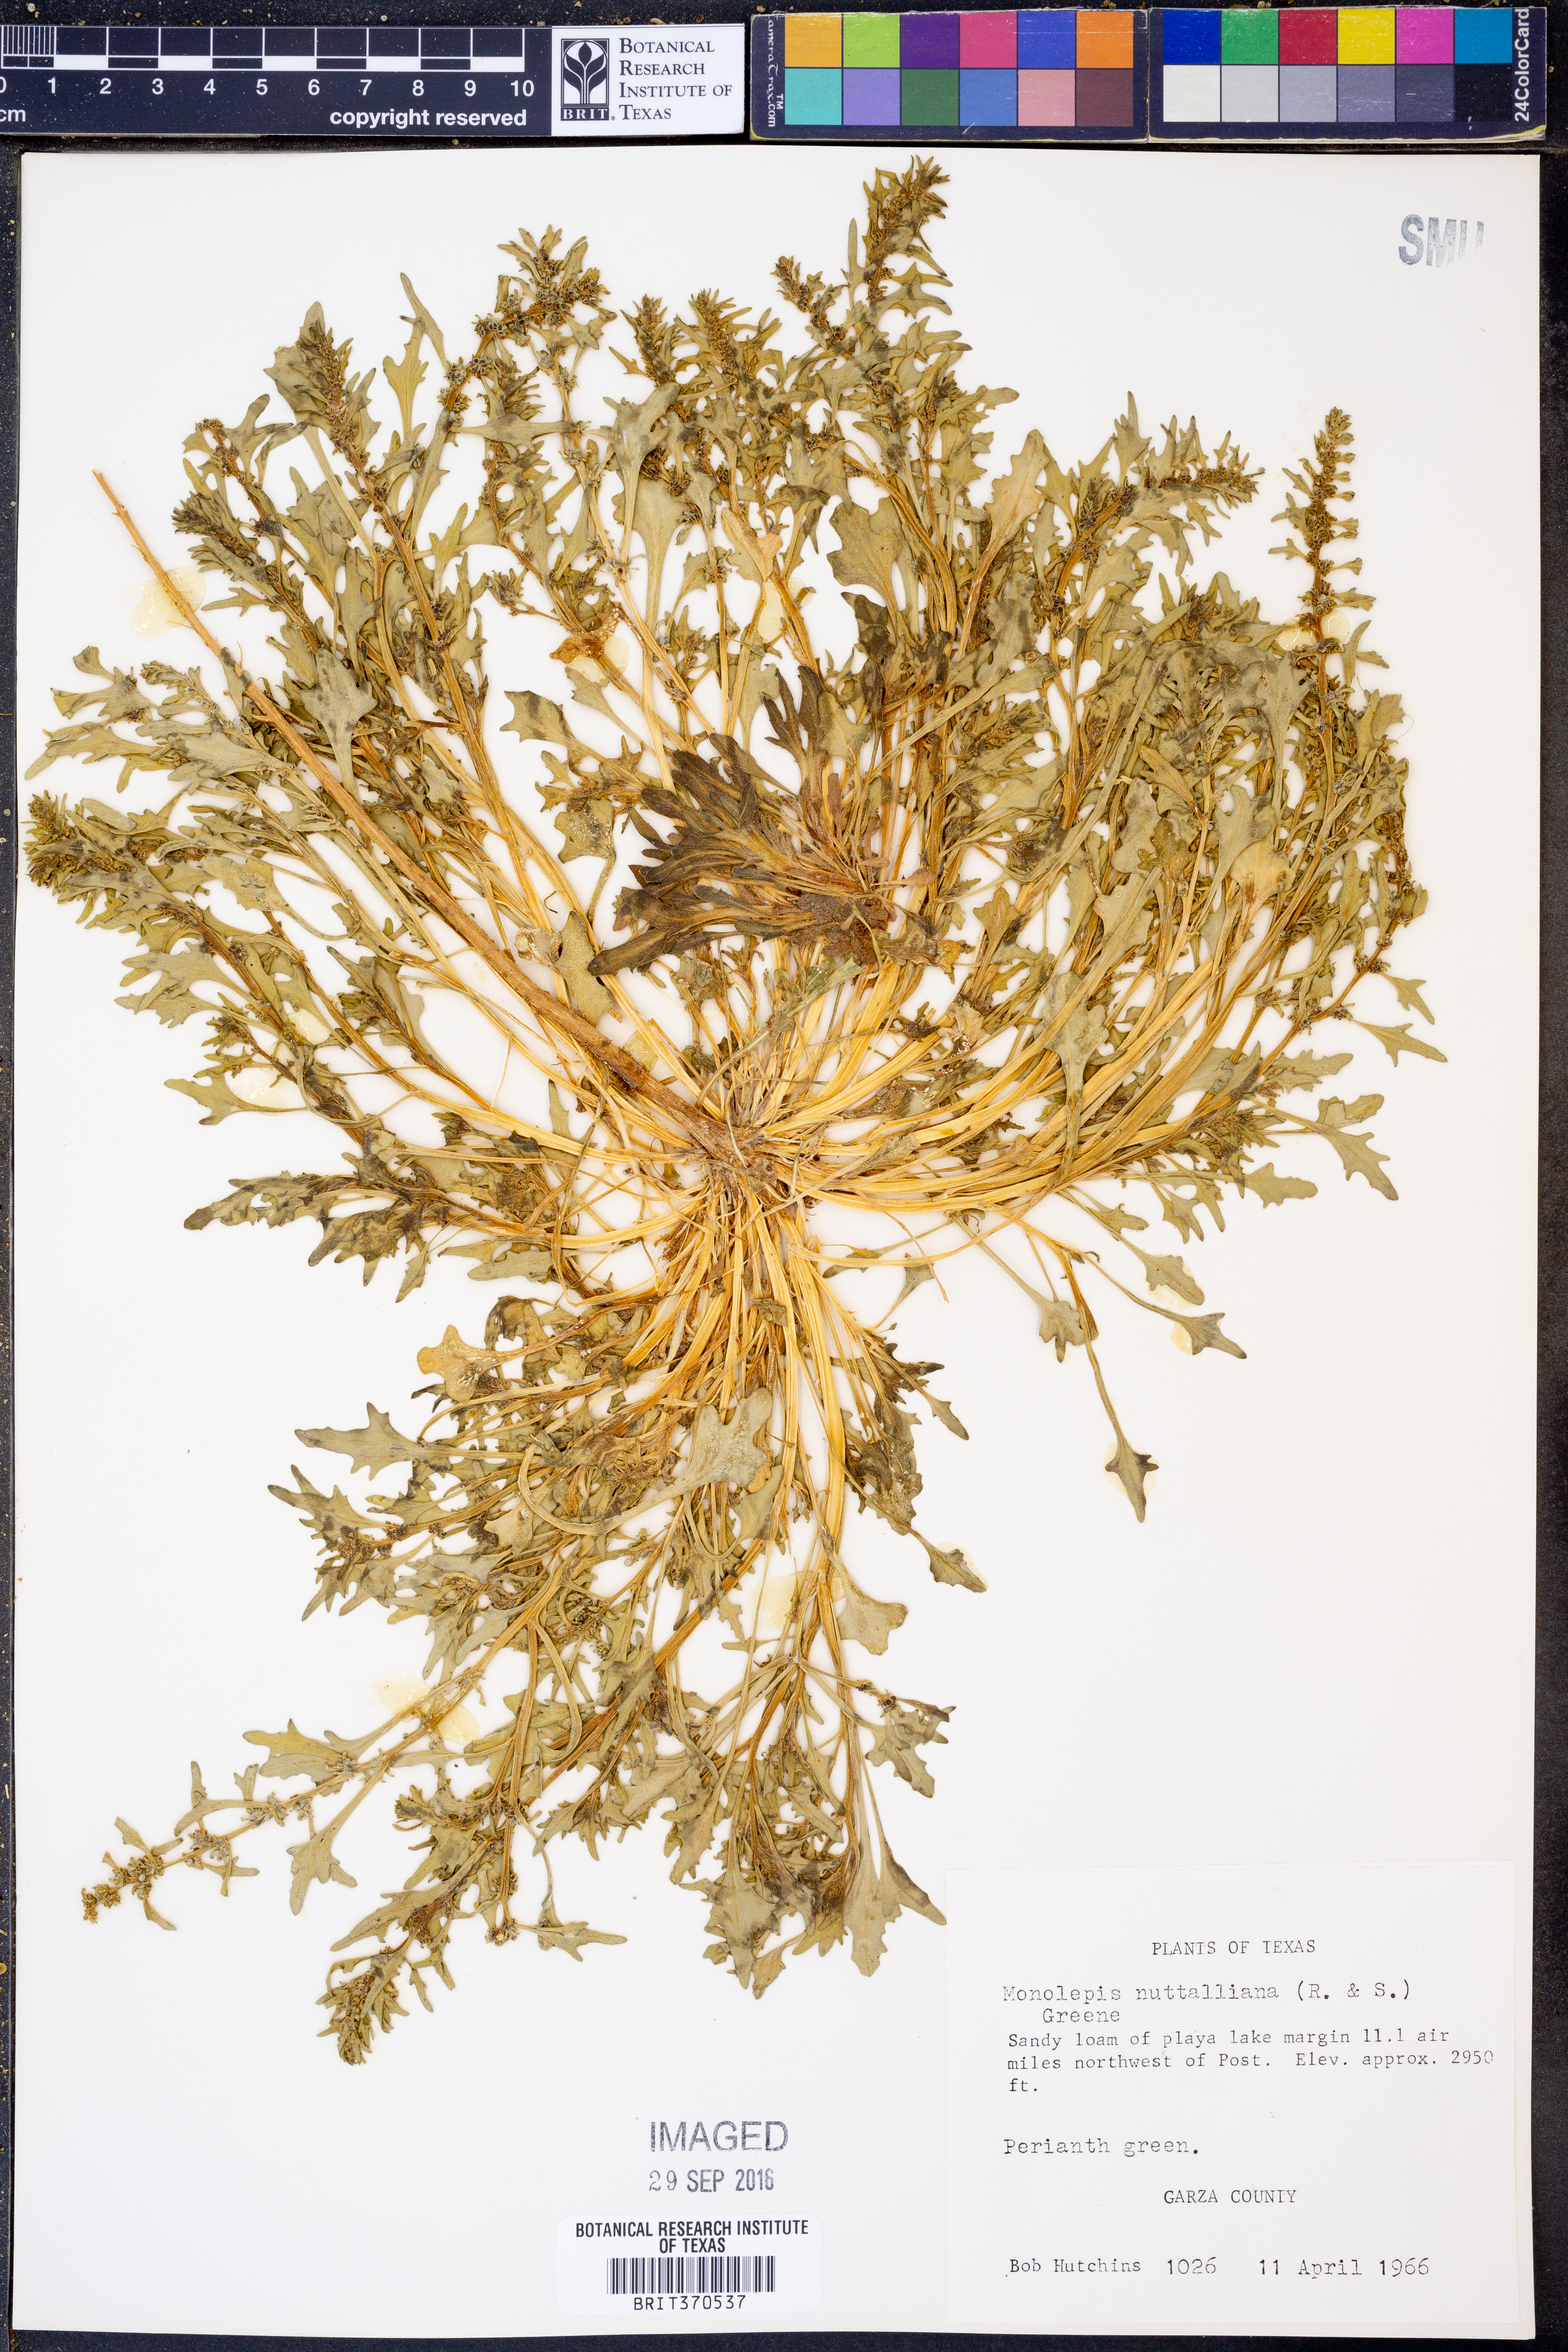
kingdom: Plantae
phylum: Tracheophyta
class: Magnoliopsida
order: Caryophyllales
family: Amaranthaceae
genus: Blitum
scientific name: Blitum nuttallianum
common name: Poverty-weed
